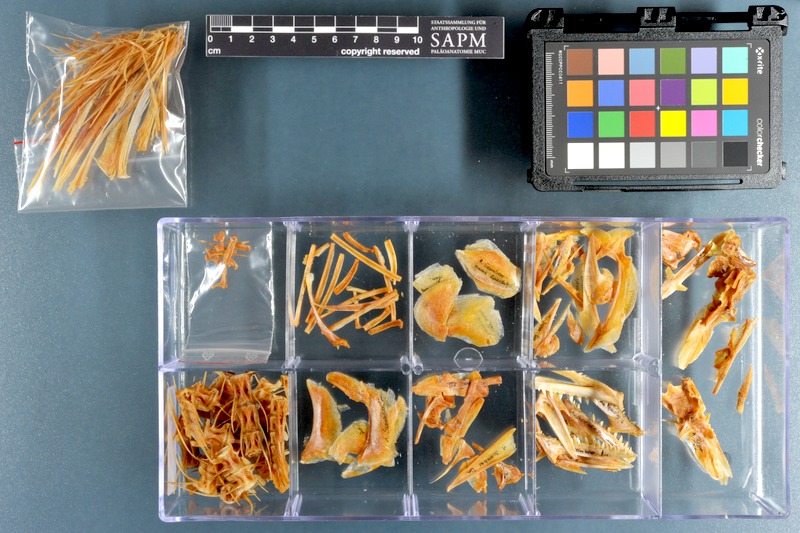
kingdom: Animalia
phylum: Chordata
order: Perciformes
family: Scombridae
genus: Scomberomorus
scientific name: Scomberomorus lineolatus
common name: Streaked seerfish
